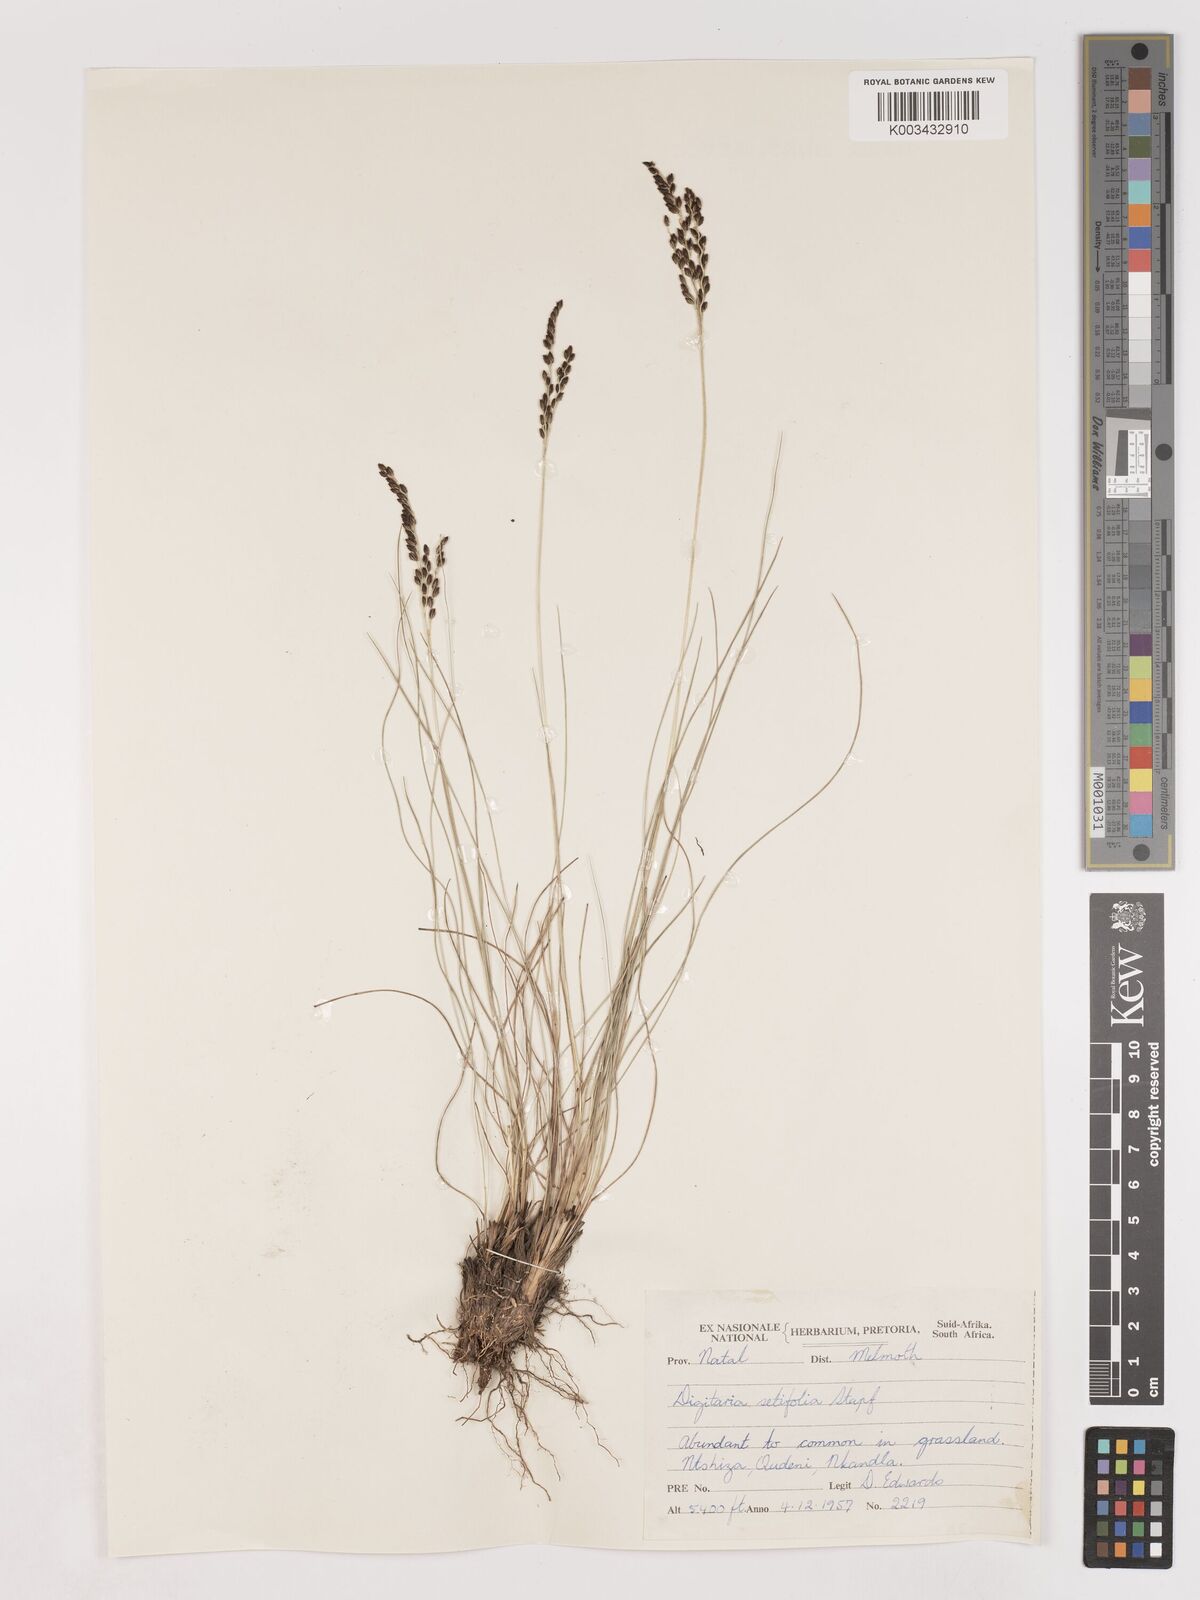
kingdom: Plantae
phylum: Tracheophyta
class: Liliopsida
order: Poales
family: Poaceae
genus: Digitaria
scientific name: Digitaria setifolia
